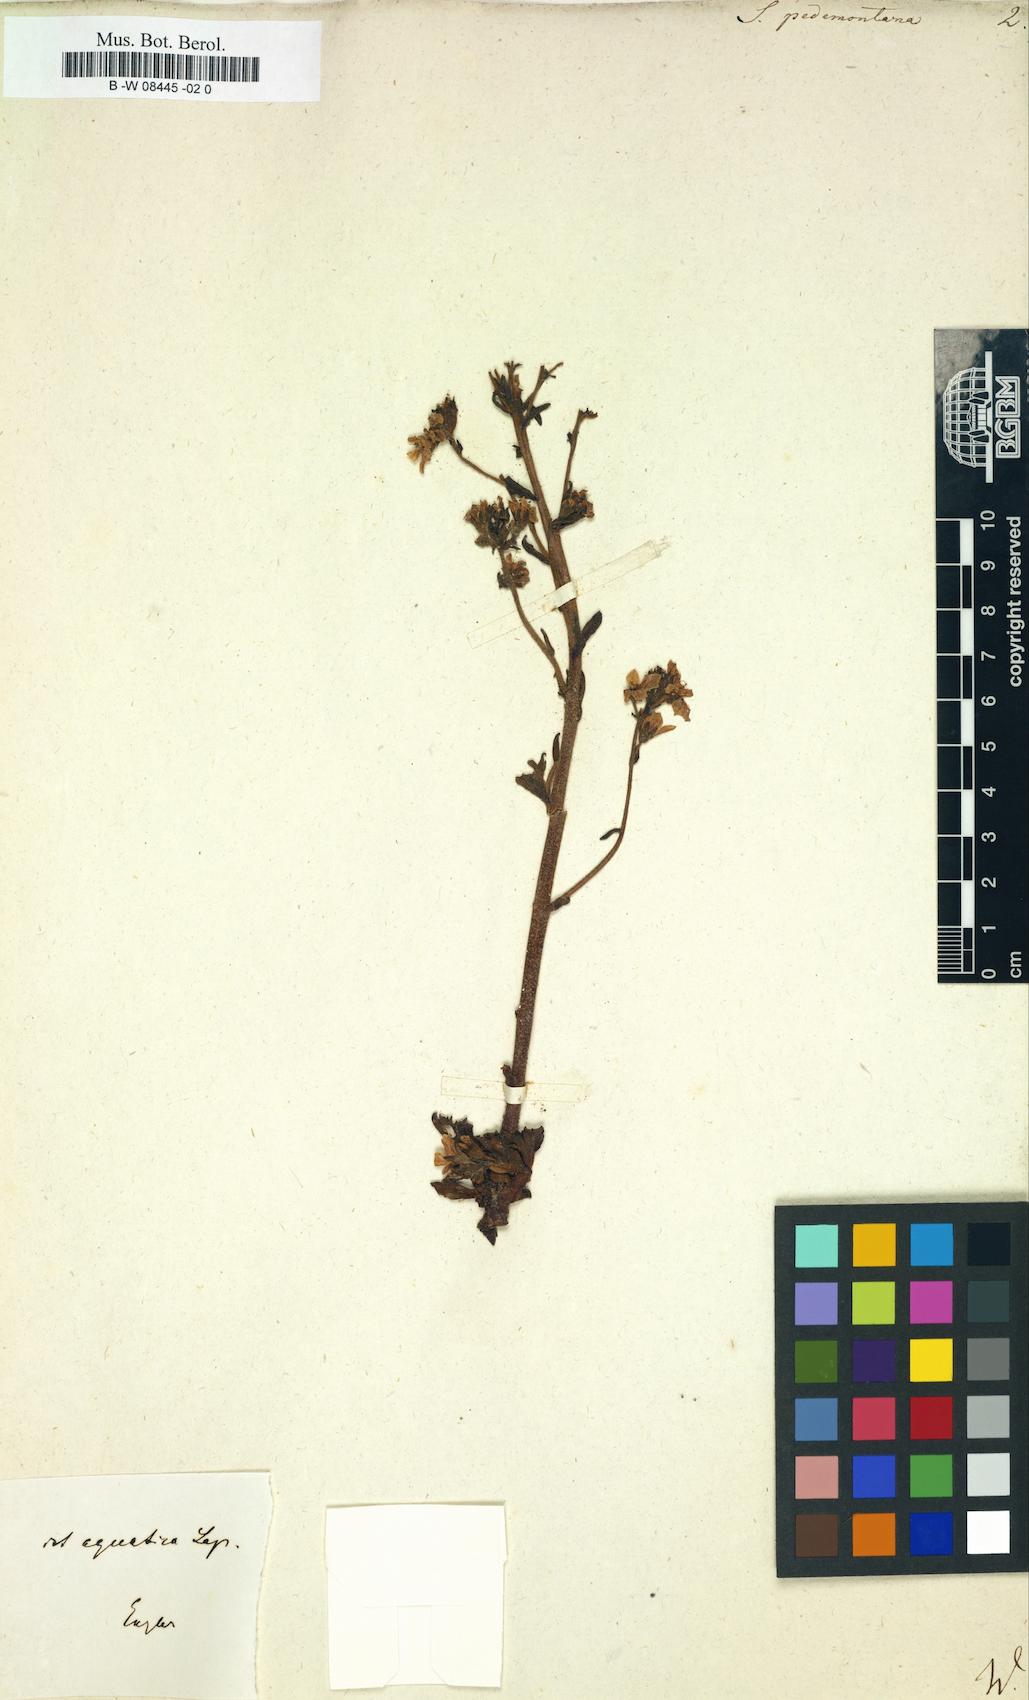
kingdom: Plantae
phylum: Tracheophyta
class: Magnoliopsida
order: Saxifragales
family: Saxifragaceae
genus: Saxifraga
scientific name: Saxifraga pedemontana
